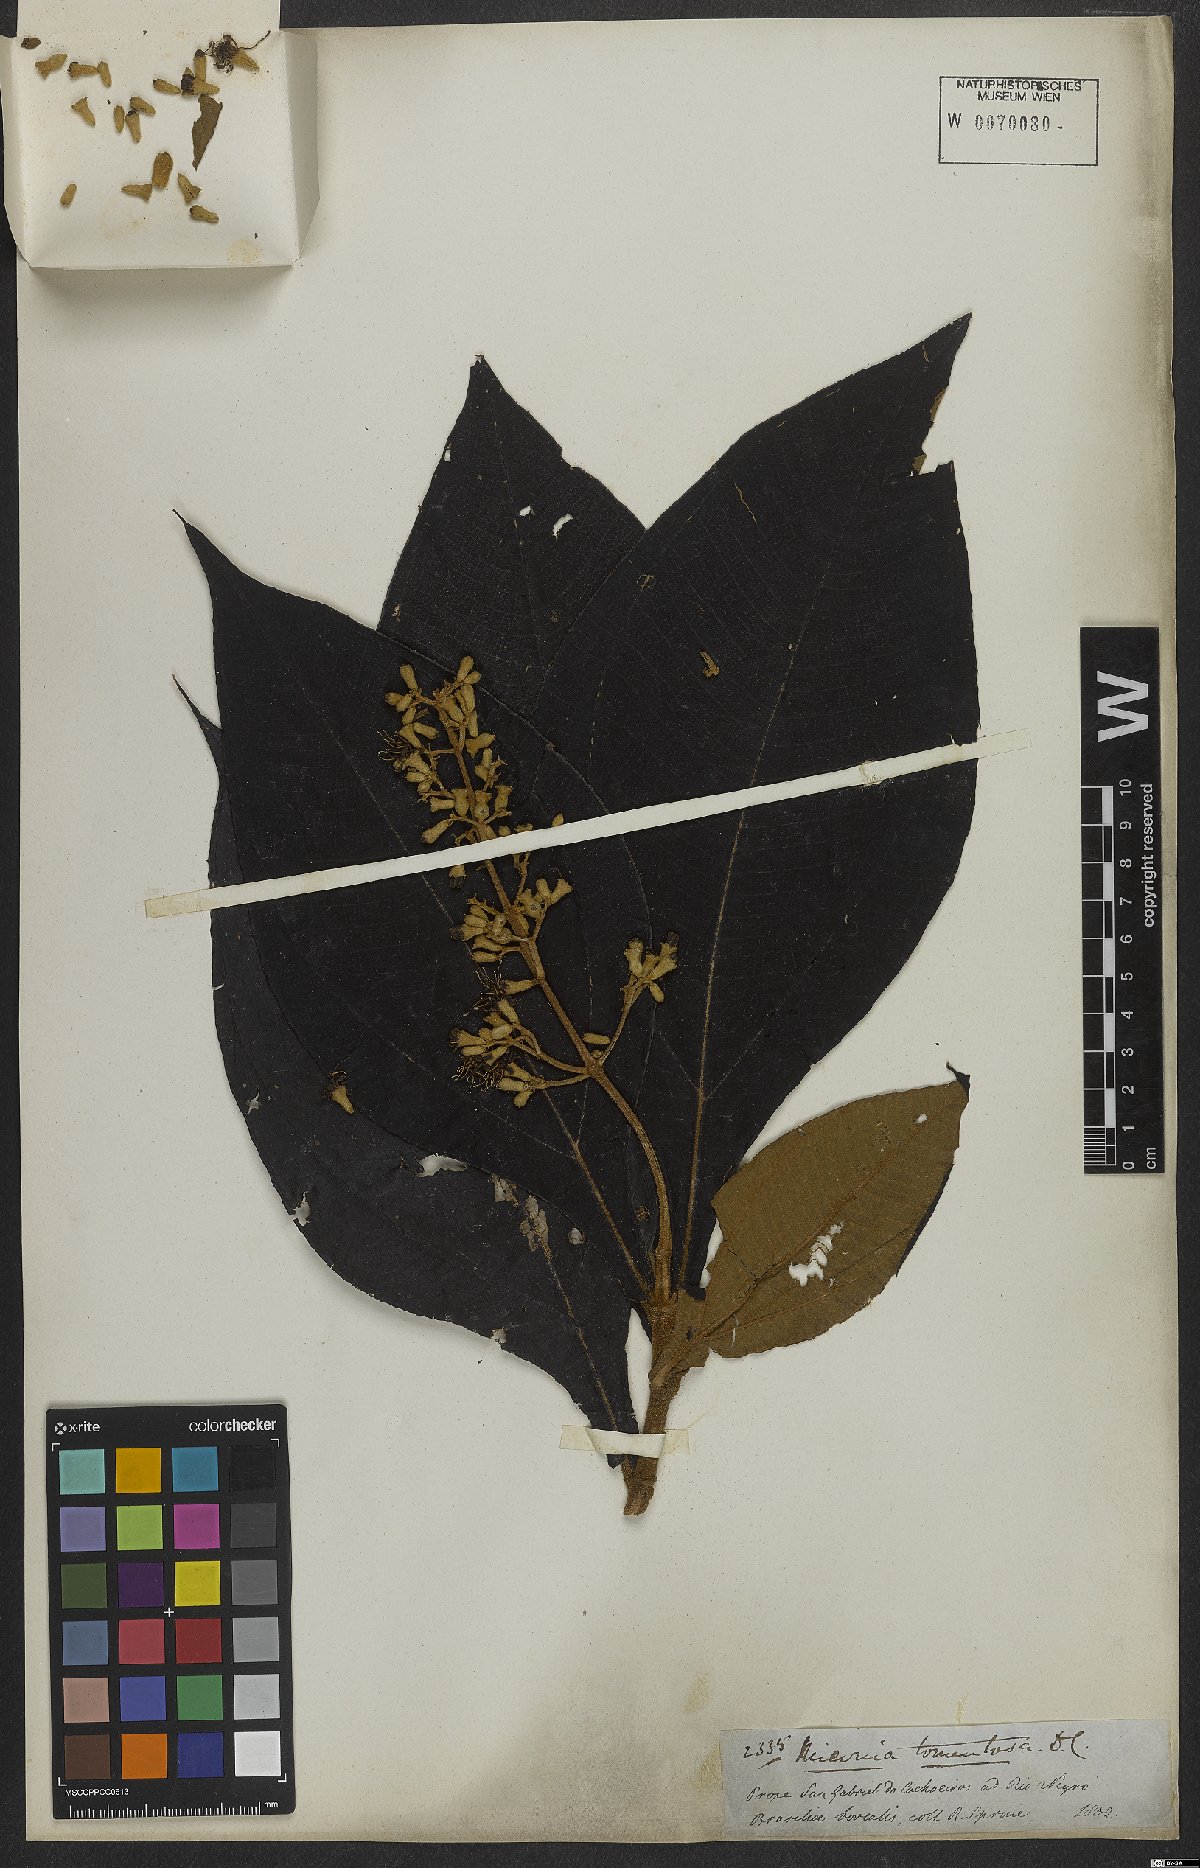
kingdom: Plantae
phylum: Tracheophyta
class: Magnoliopsida
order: Myrtales
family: Melastomataceae
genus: Miconia
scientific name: Miconia tomentosa
